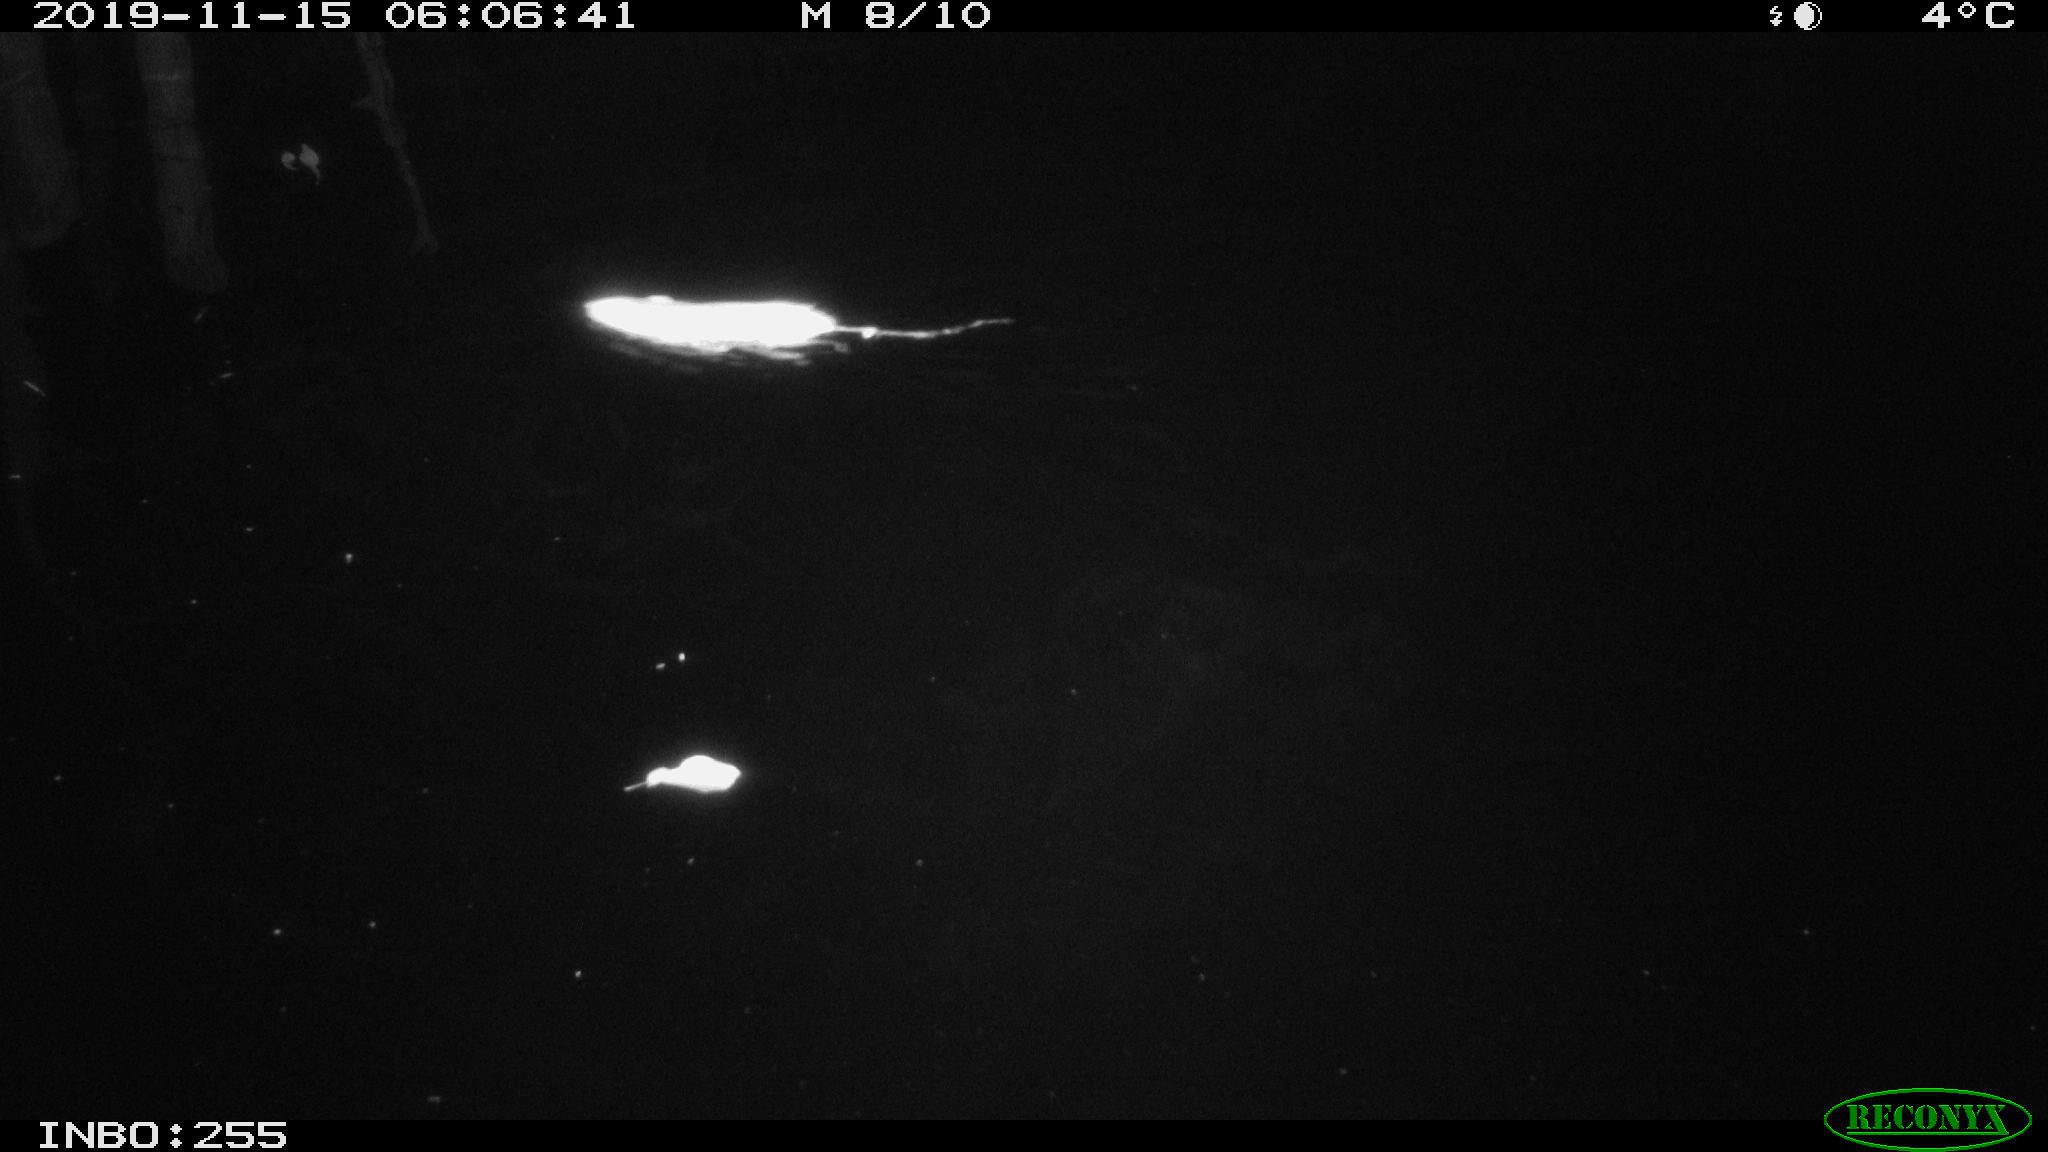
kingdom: Animalia
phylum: Chordata
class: Mammalia
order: Rodentia
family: Muridae
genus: Rattus
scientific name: Rattus norvegicus
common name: Brown rat
